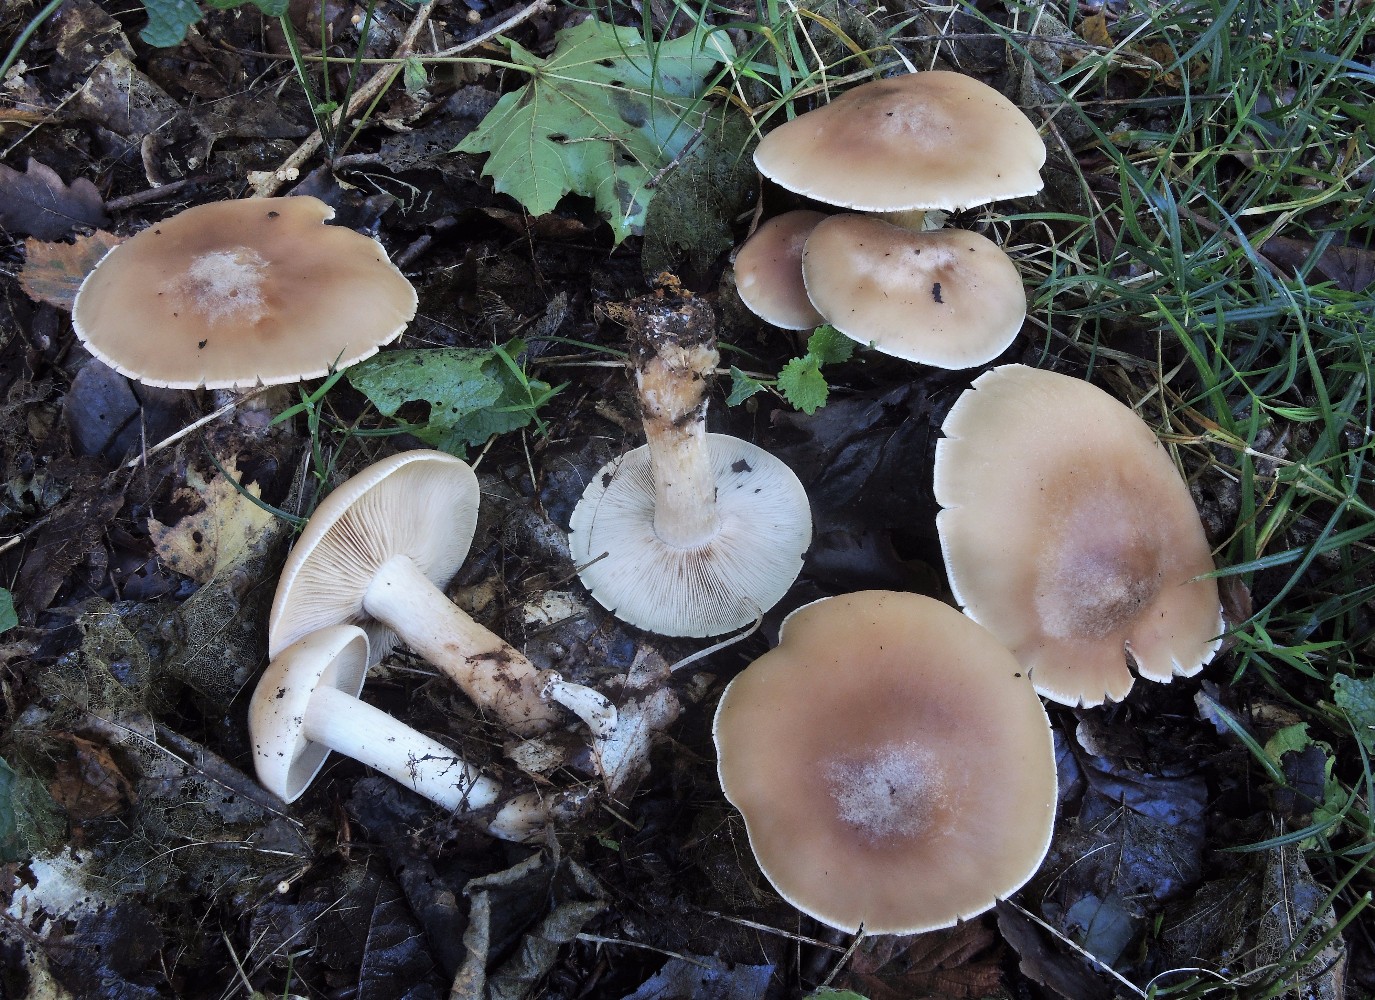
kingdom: Fungi
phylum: Basidiomycota
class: Agaricomycetes
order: Agaricales
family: Tricholomataceae
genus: Lepista
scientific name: Lepista irina
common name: violduftende hekseringshat
